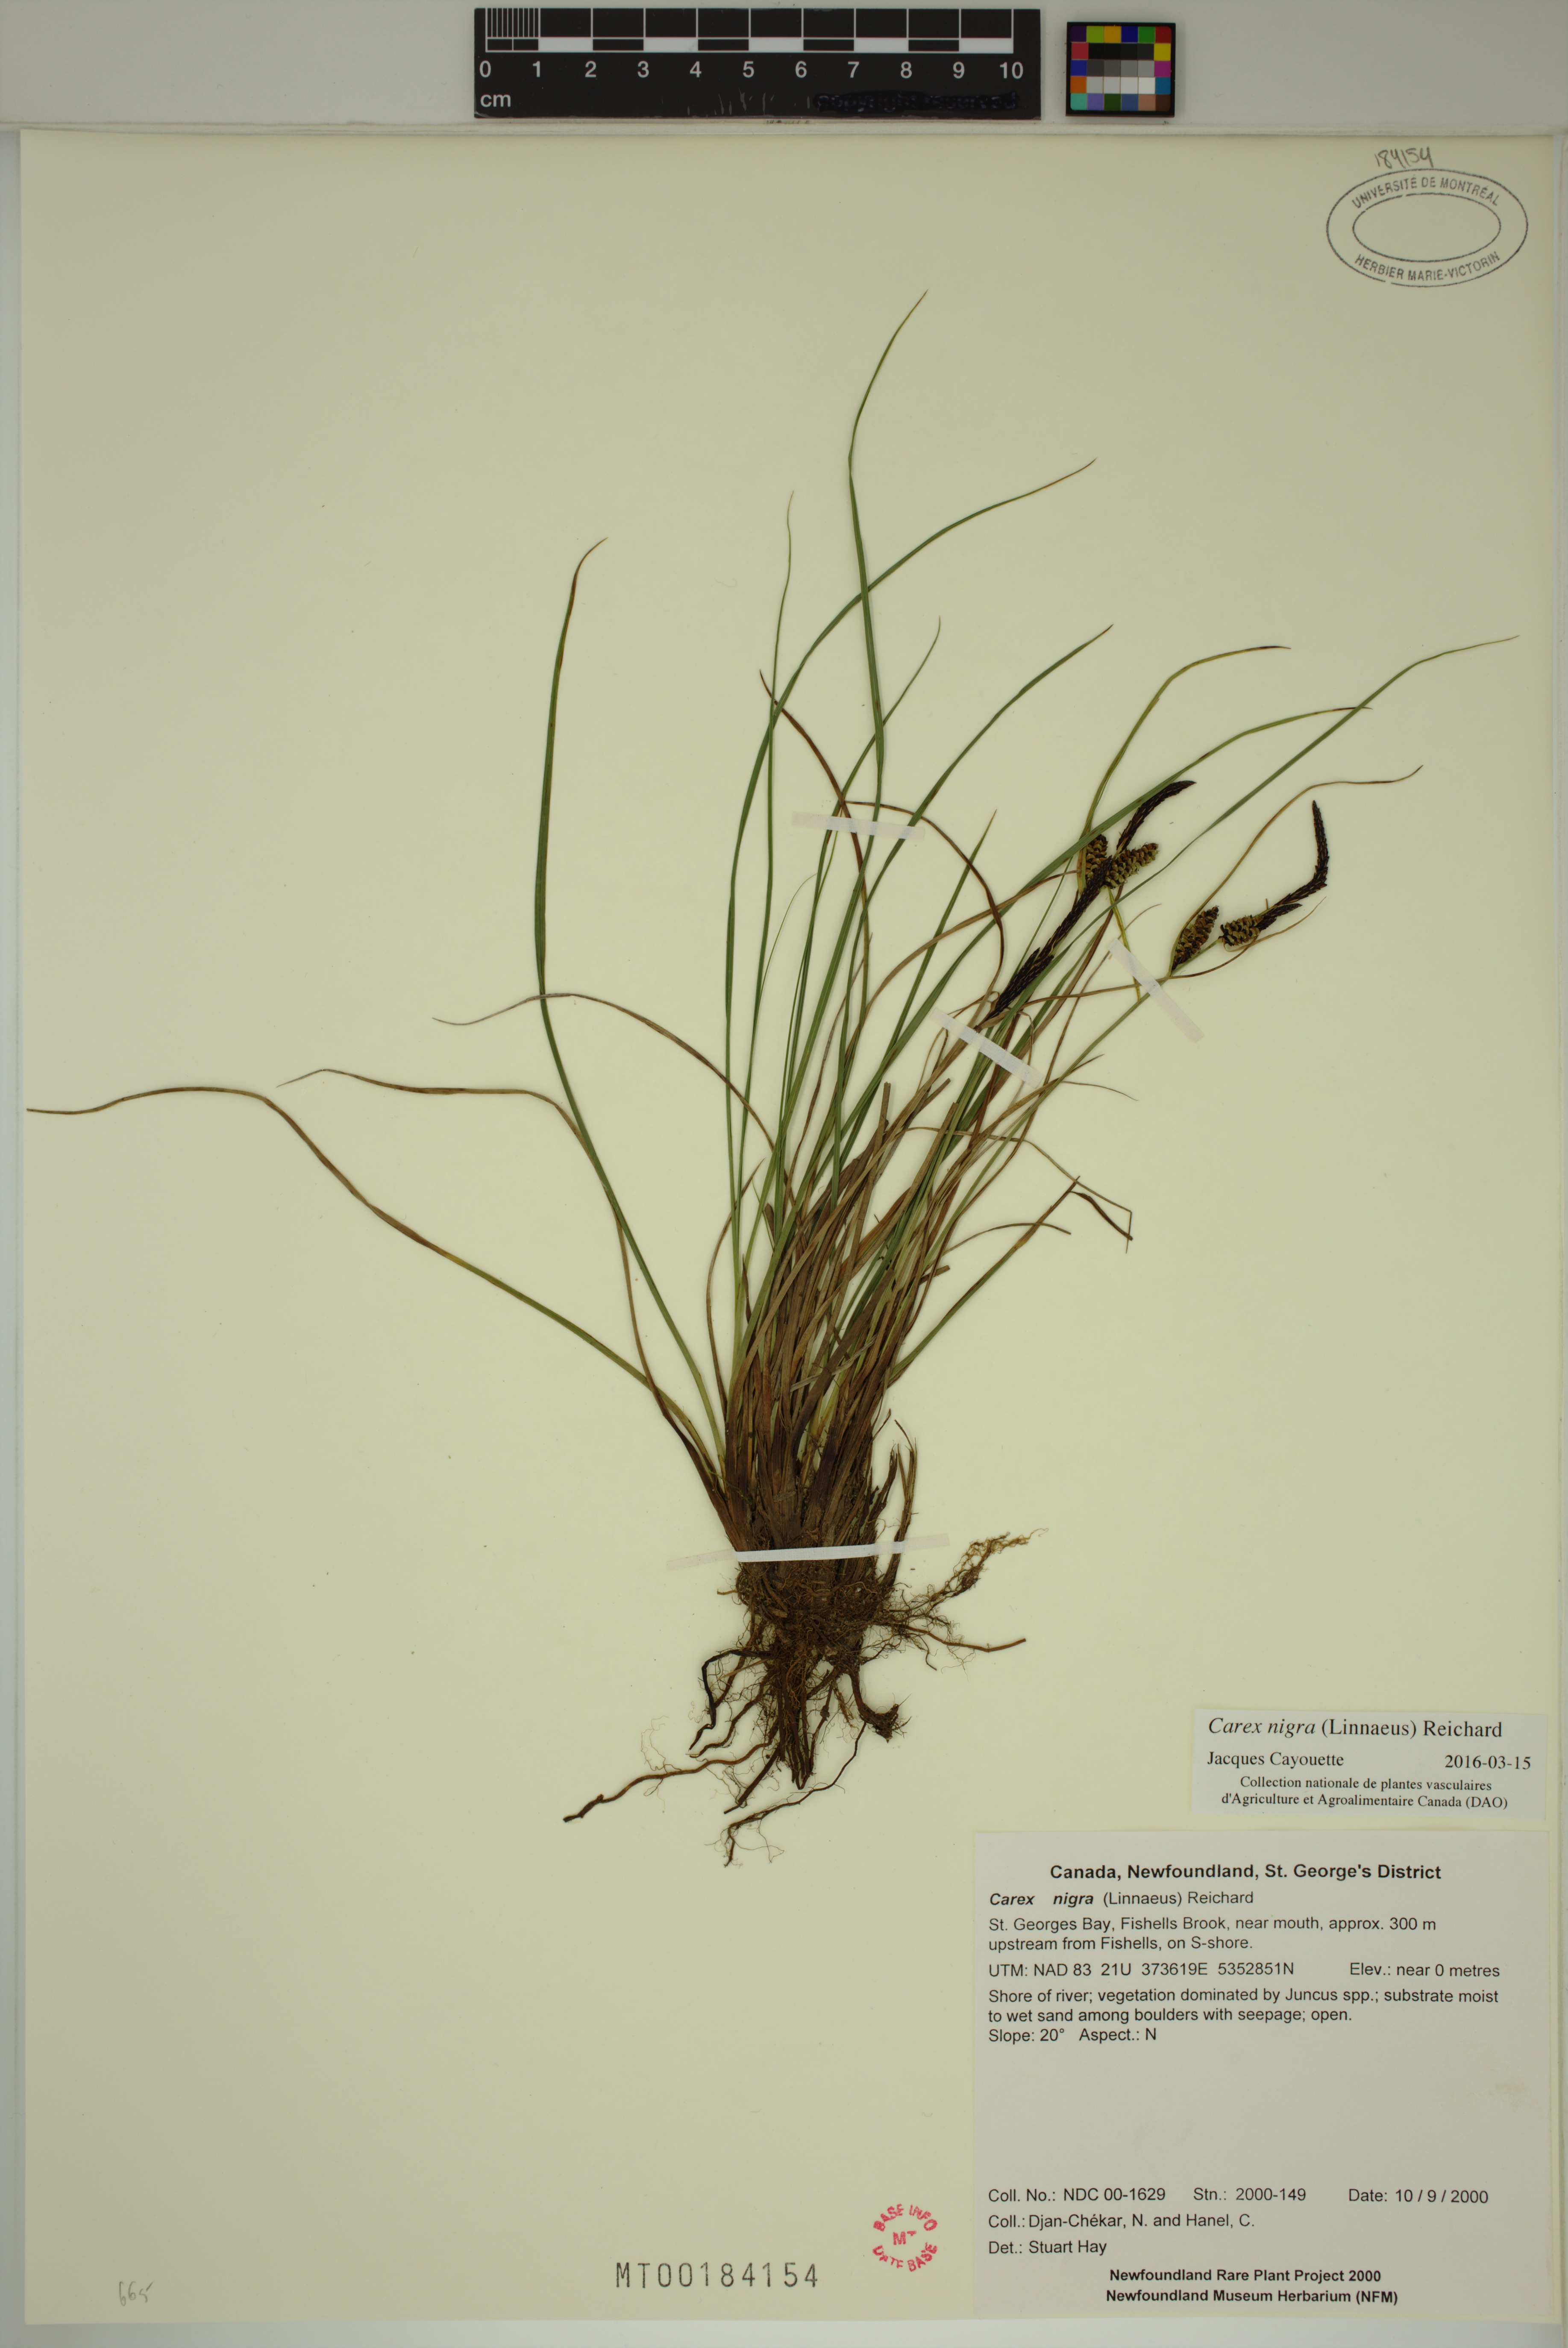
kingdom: Plantae
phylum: Tracheophyta
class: Liliopsida
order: Poales
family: Cyperaceae
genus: Carex
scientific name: Carex nigra
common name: Common sedge
